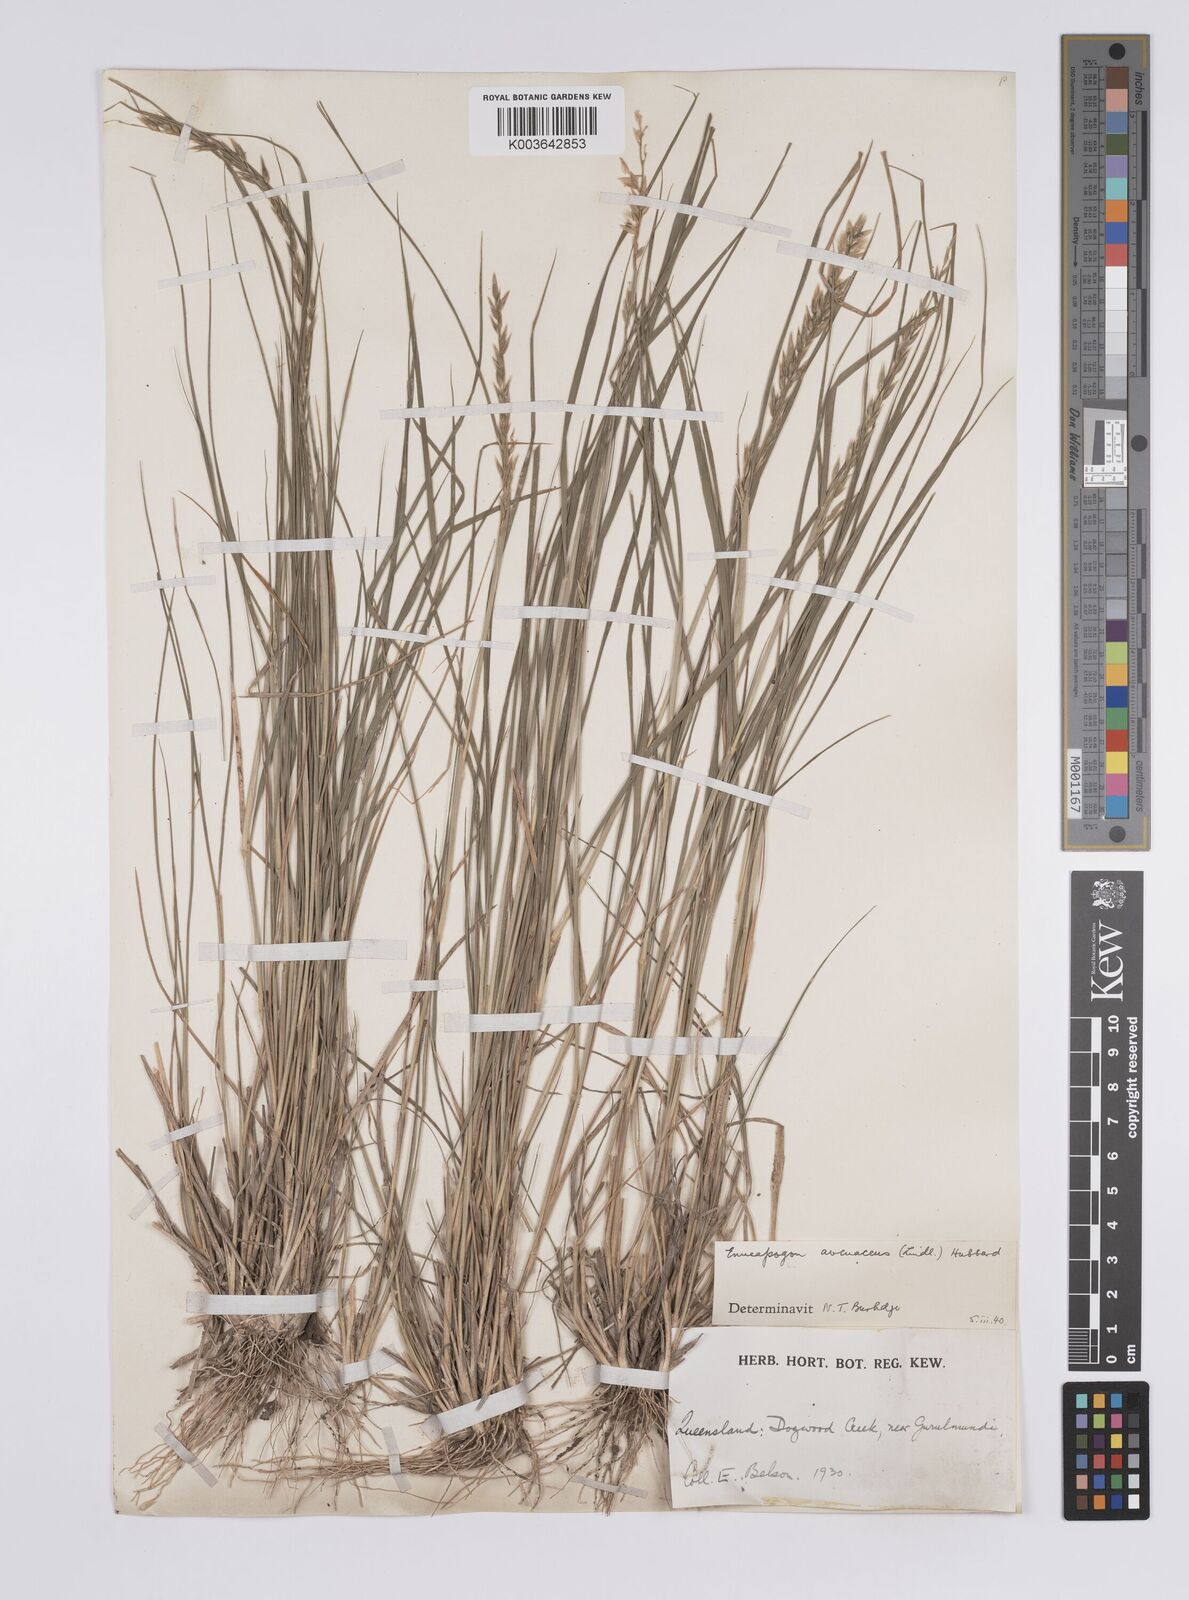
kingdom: Plantae
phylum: Tracheophyta
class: Liliopsida
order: Poales
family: Poaceae
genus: Enneapogon
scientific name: Enneapogon avenaceus
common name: Hairy oat grass
